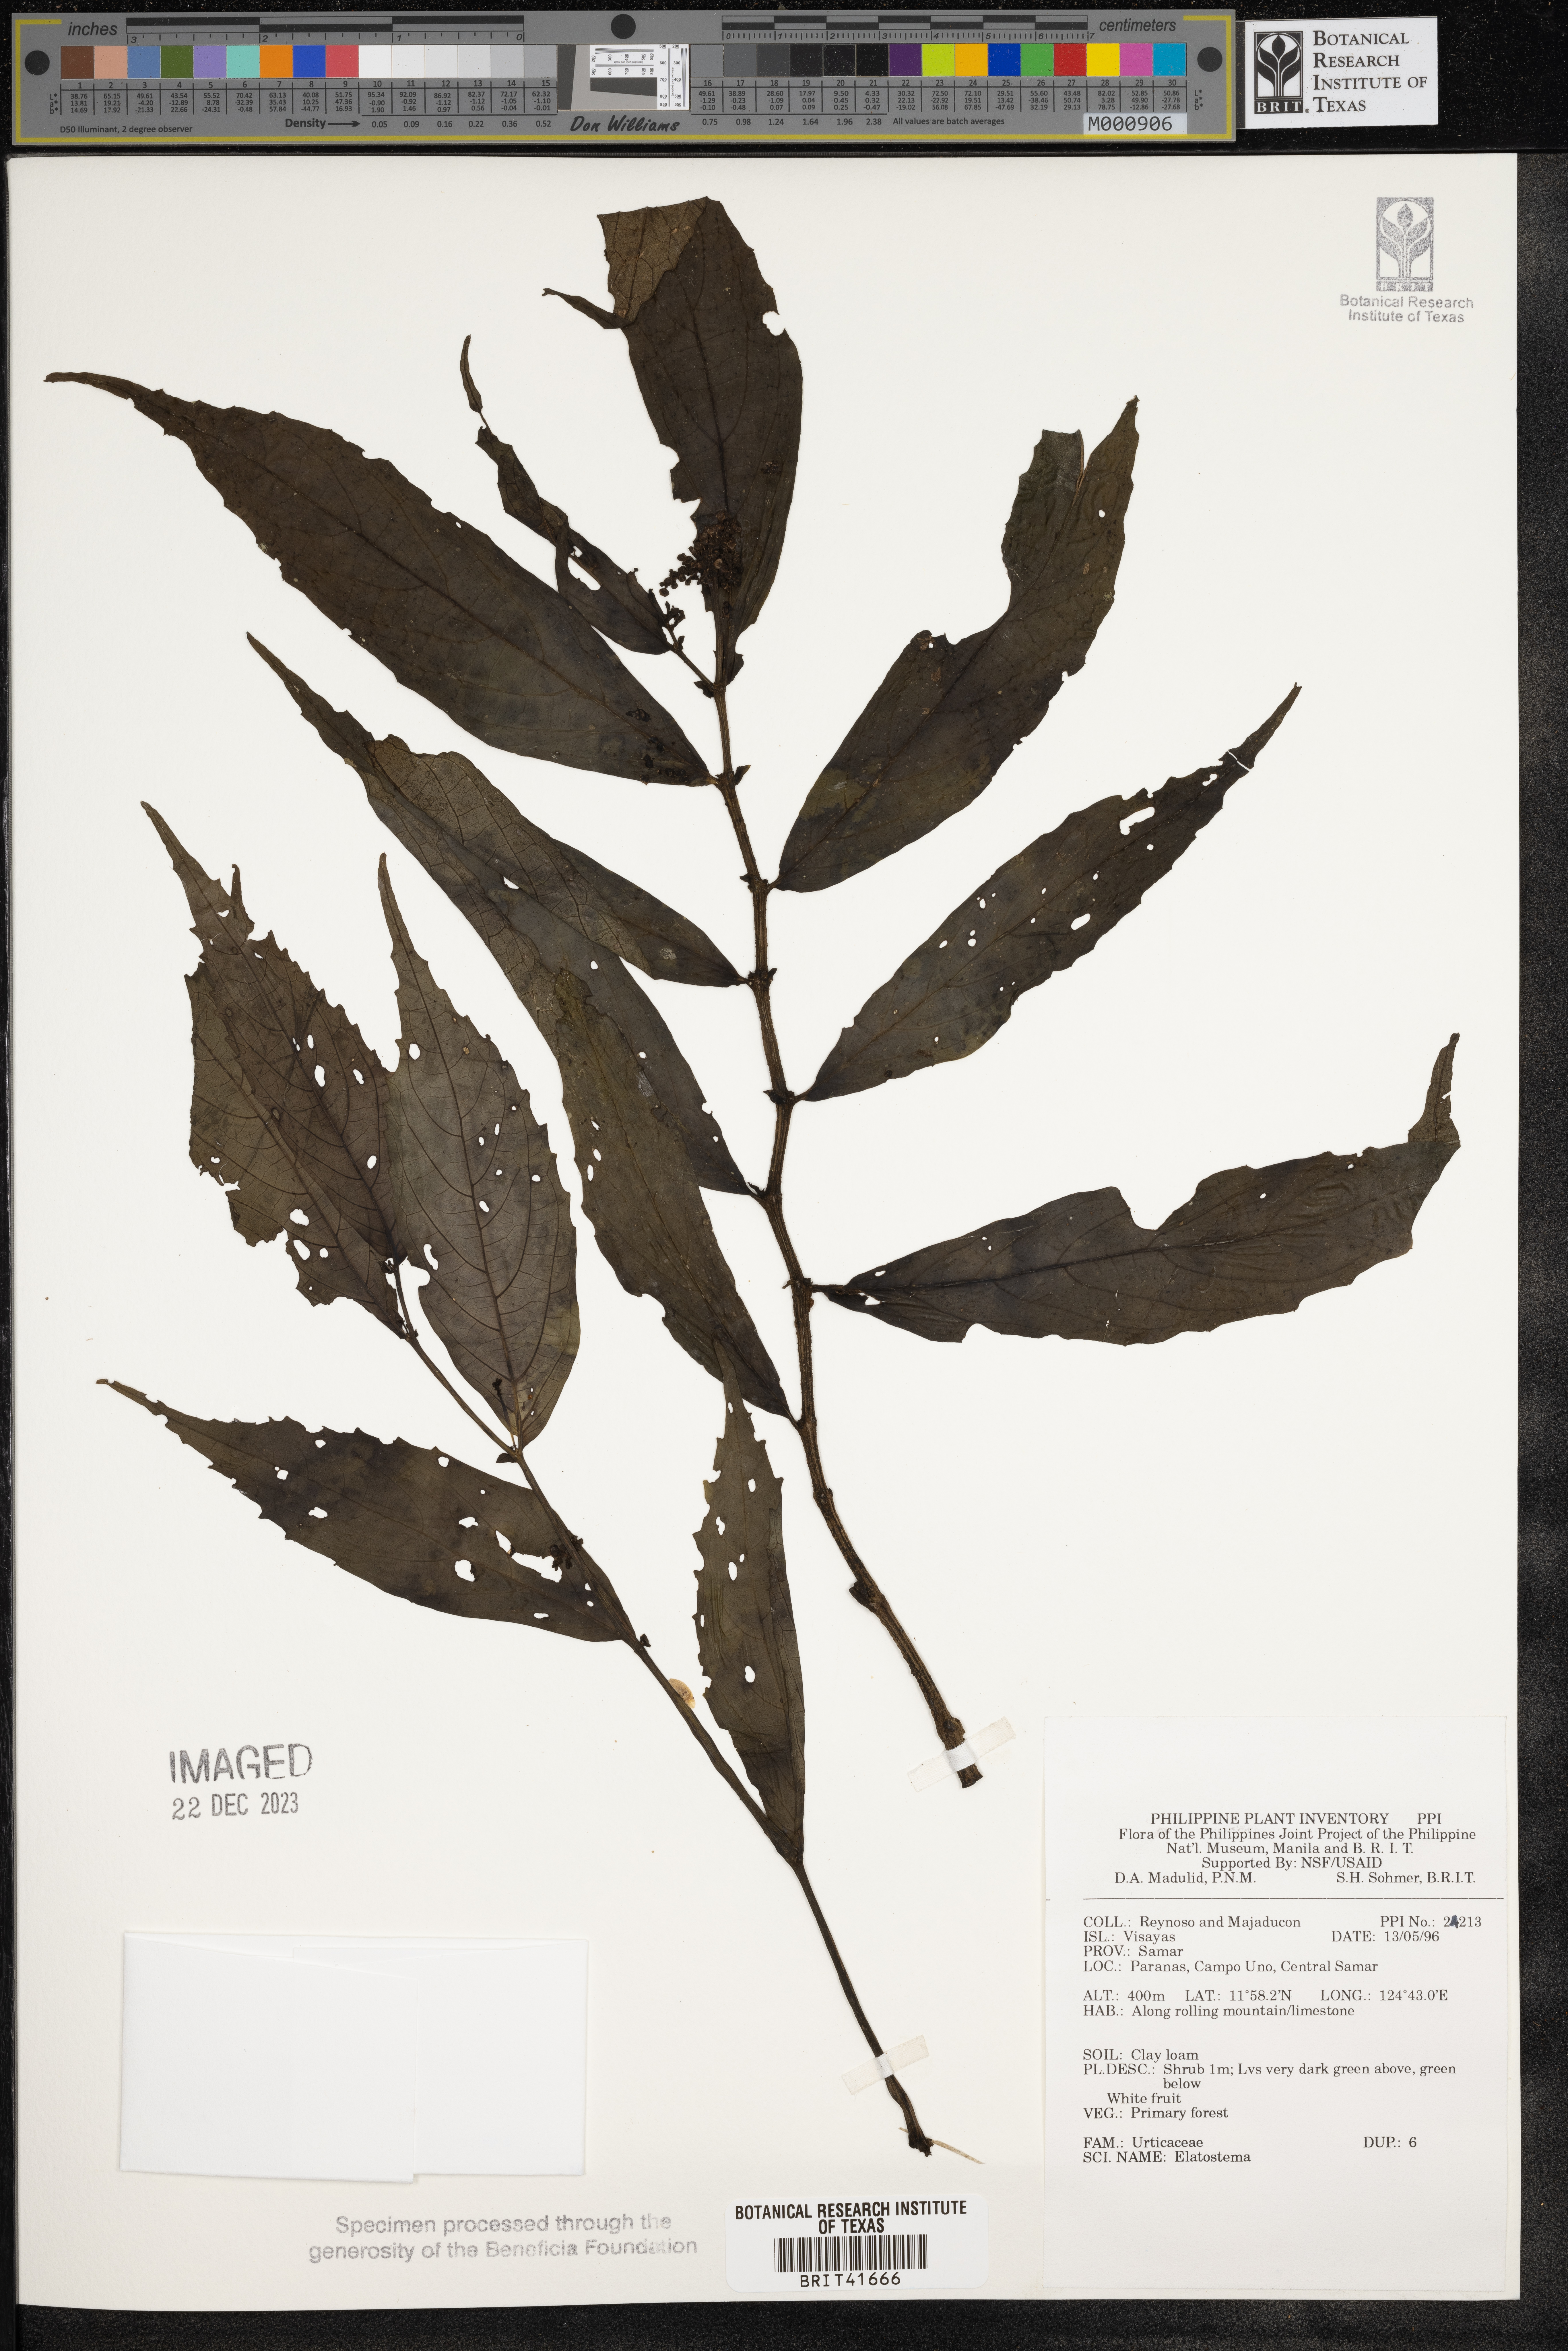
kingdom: Plantae
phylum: Tracheophyta
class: Magnoliopsida
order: Rosales
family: Urticaceae
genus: Elatostema
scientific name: Elatostema
